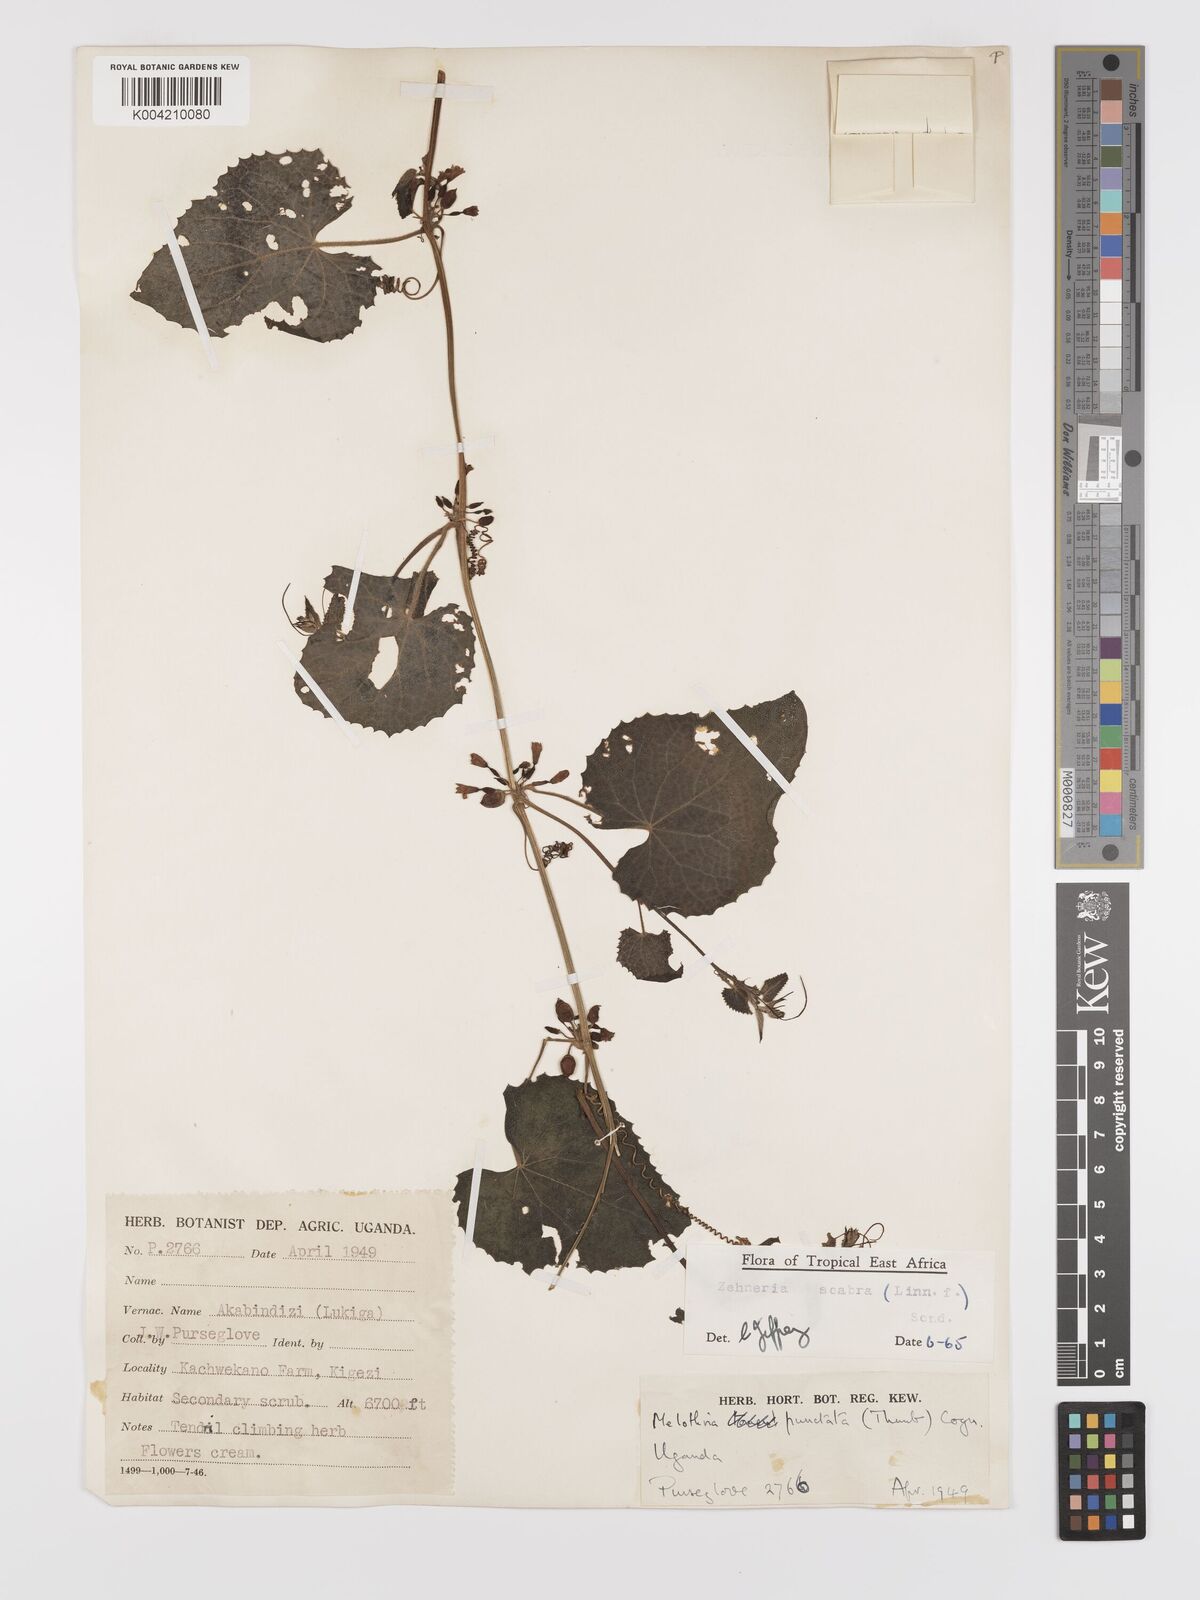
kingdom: Plantae
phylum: Tracheophyta
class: Magnoliopsida
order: Cucurbitales
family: Cucurbitaceae
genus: Zehneria
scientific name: Zehneria scabra
